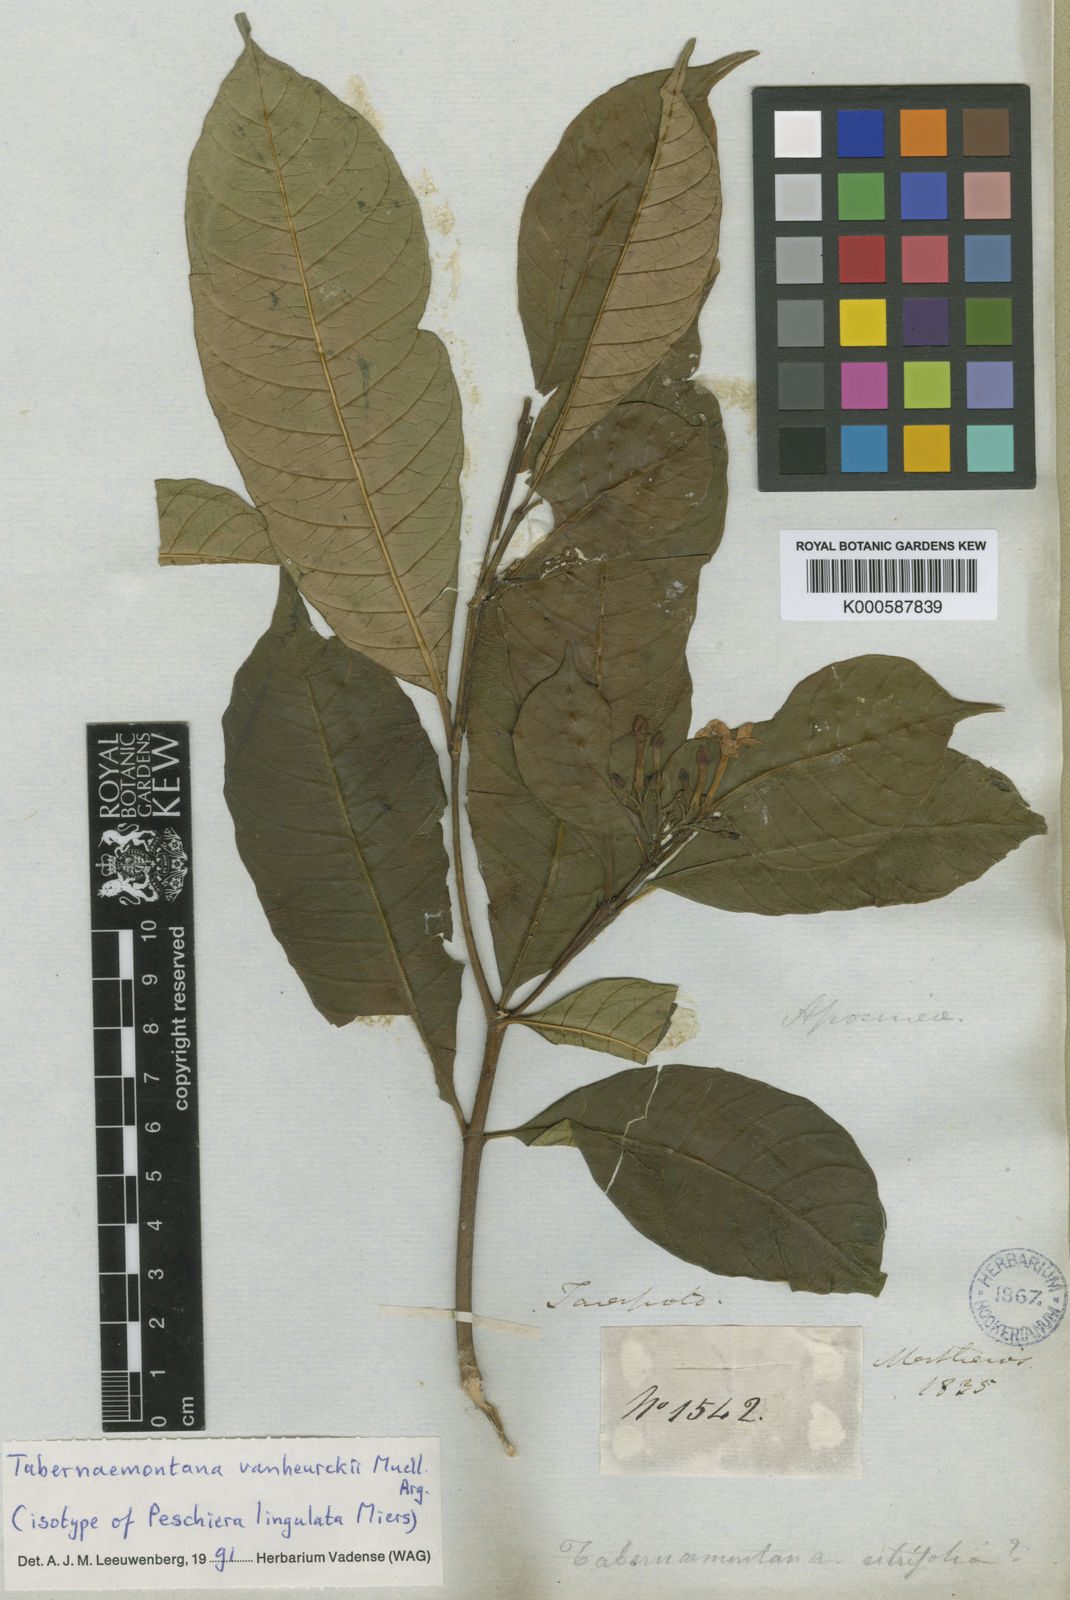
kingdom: Plantae
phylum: Tracheophyta
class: Magnoliopsida
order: Gentianales
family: Apocynaceae
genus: Tabernaemontana
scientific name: Tabernaemontana
